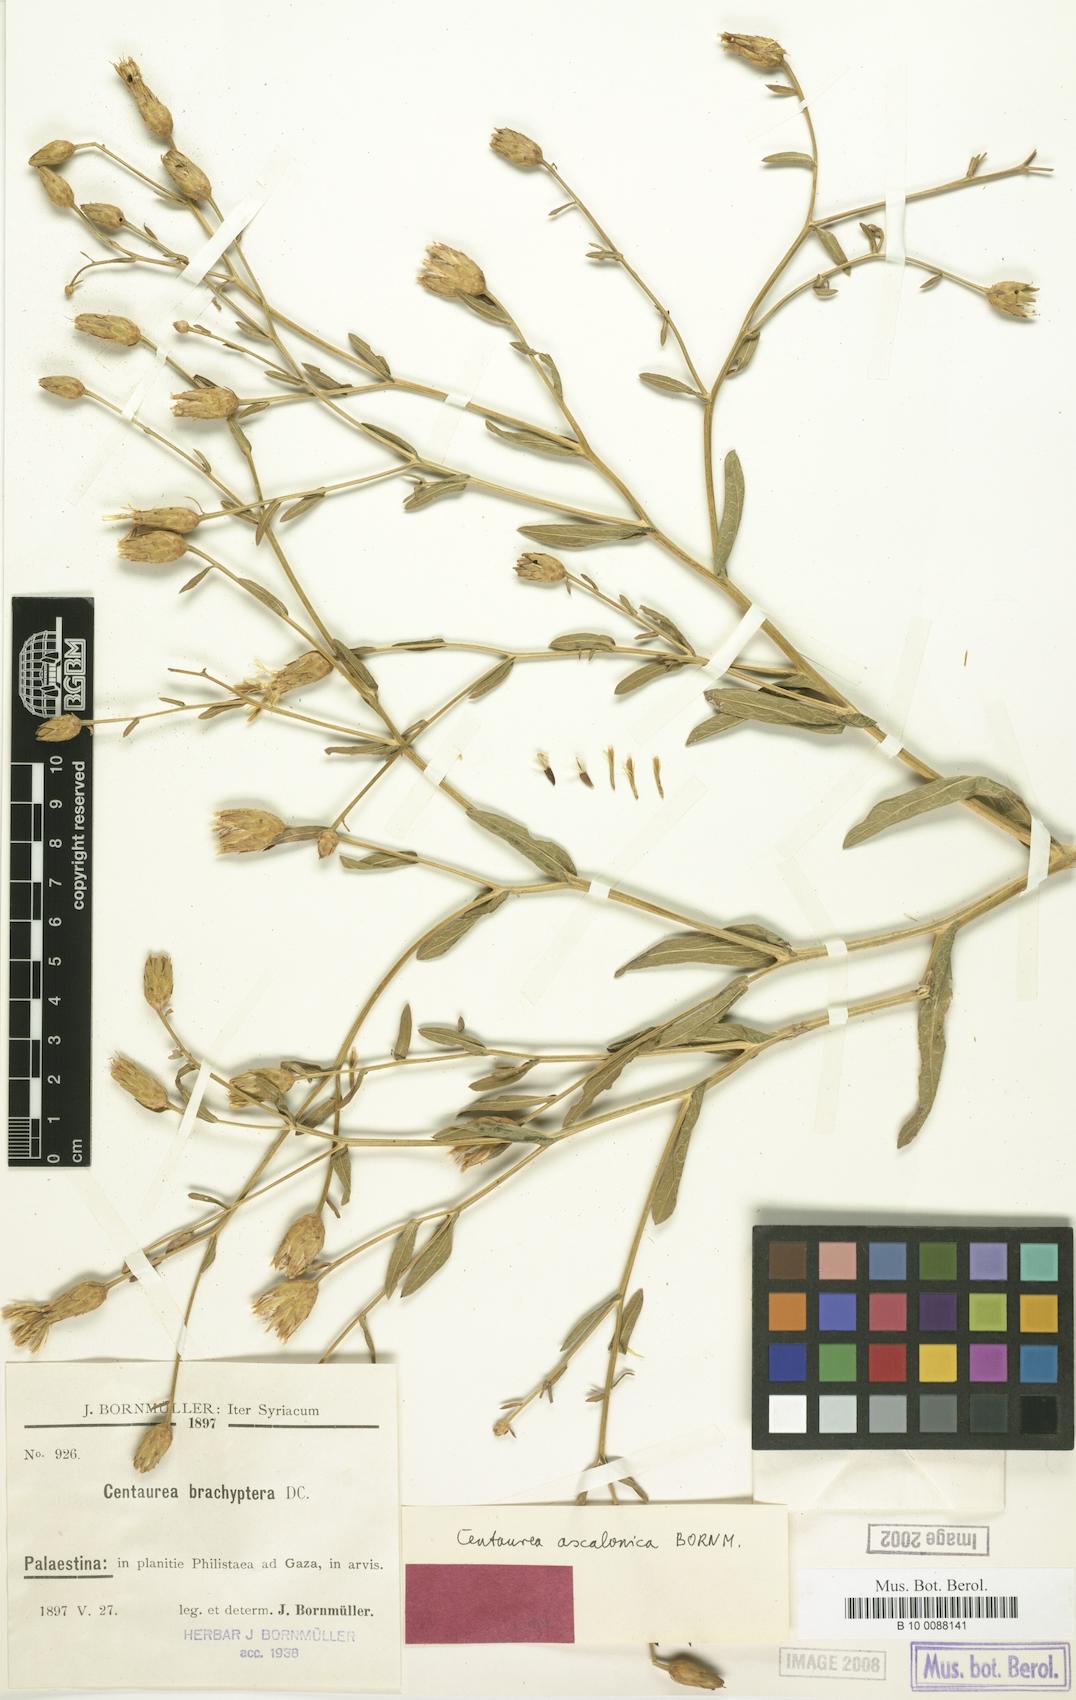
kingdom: Plantae
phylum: Tracheophyta
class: Magnoliopsida
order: Asterales
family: Asteraceae
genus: Centaurea
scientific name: Centaurea ascalonica
